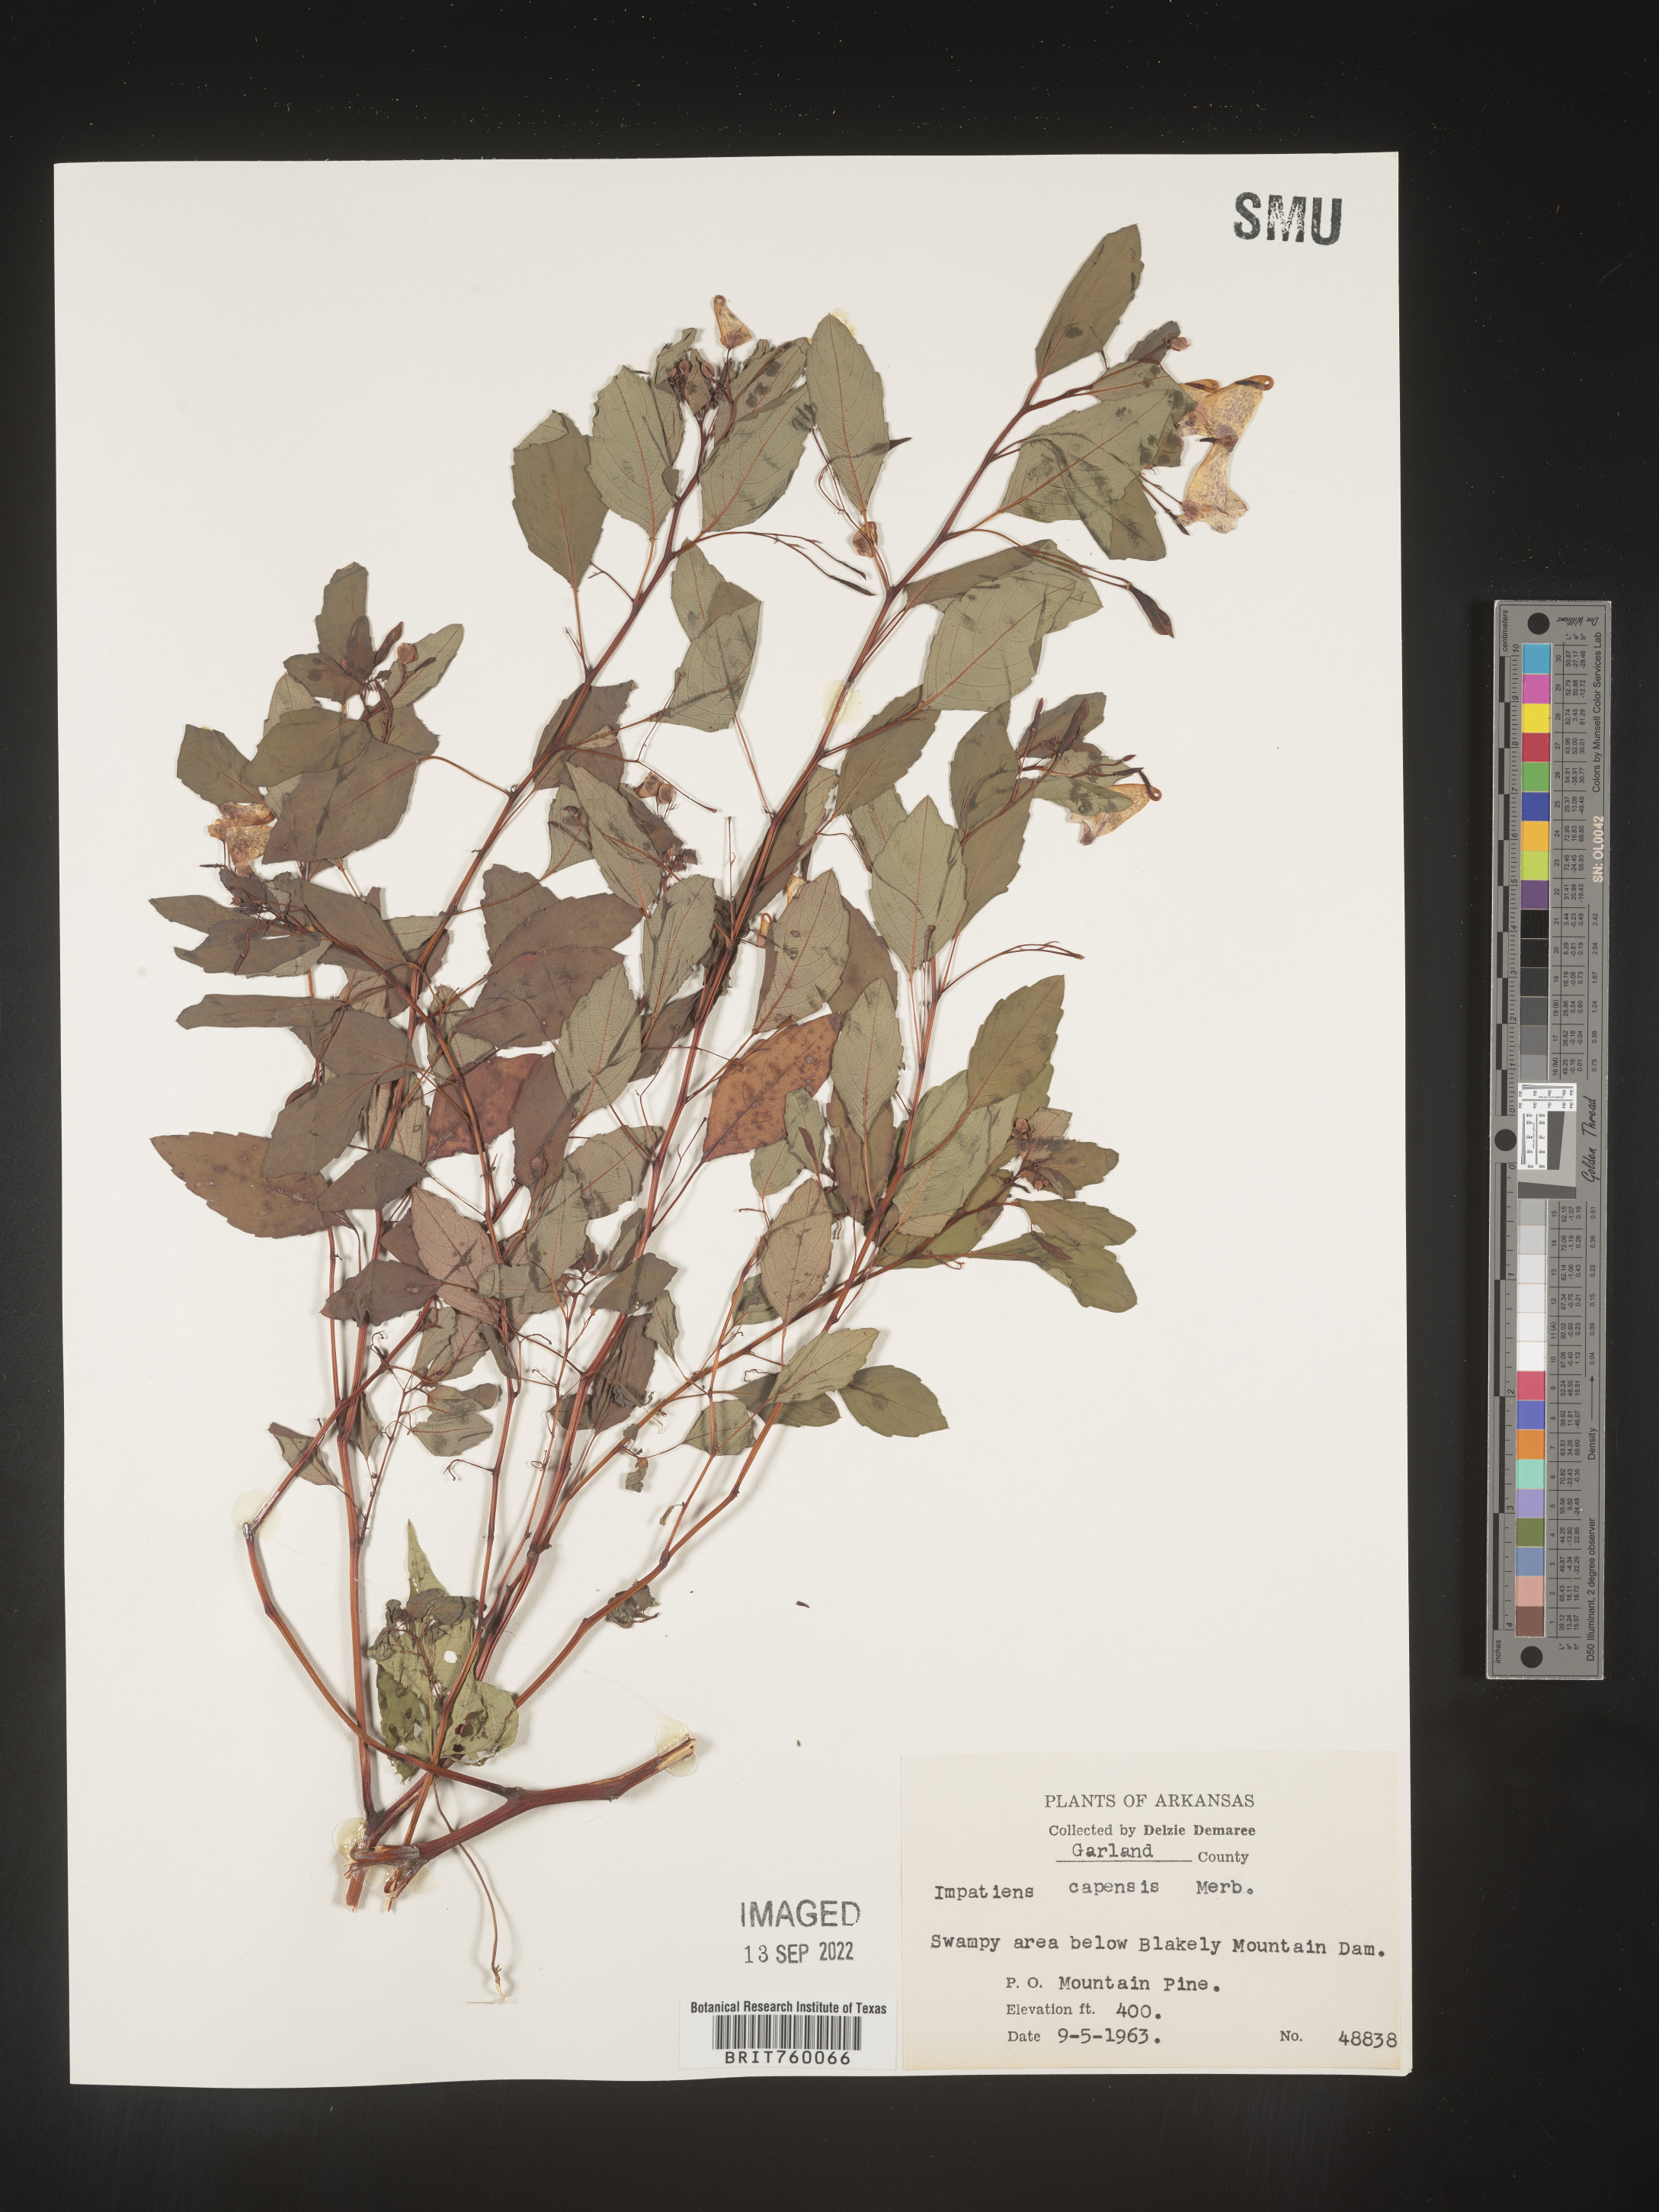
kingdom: Plantae
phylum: Tracheophyta
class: Magnoliopsida
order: Ericales
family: Balsaminaceae
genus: Impatiens
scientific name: Impatiens capensis
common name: Orange balsam
